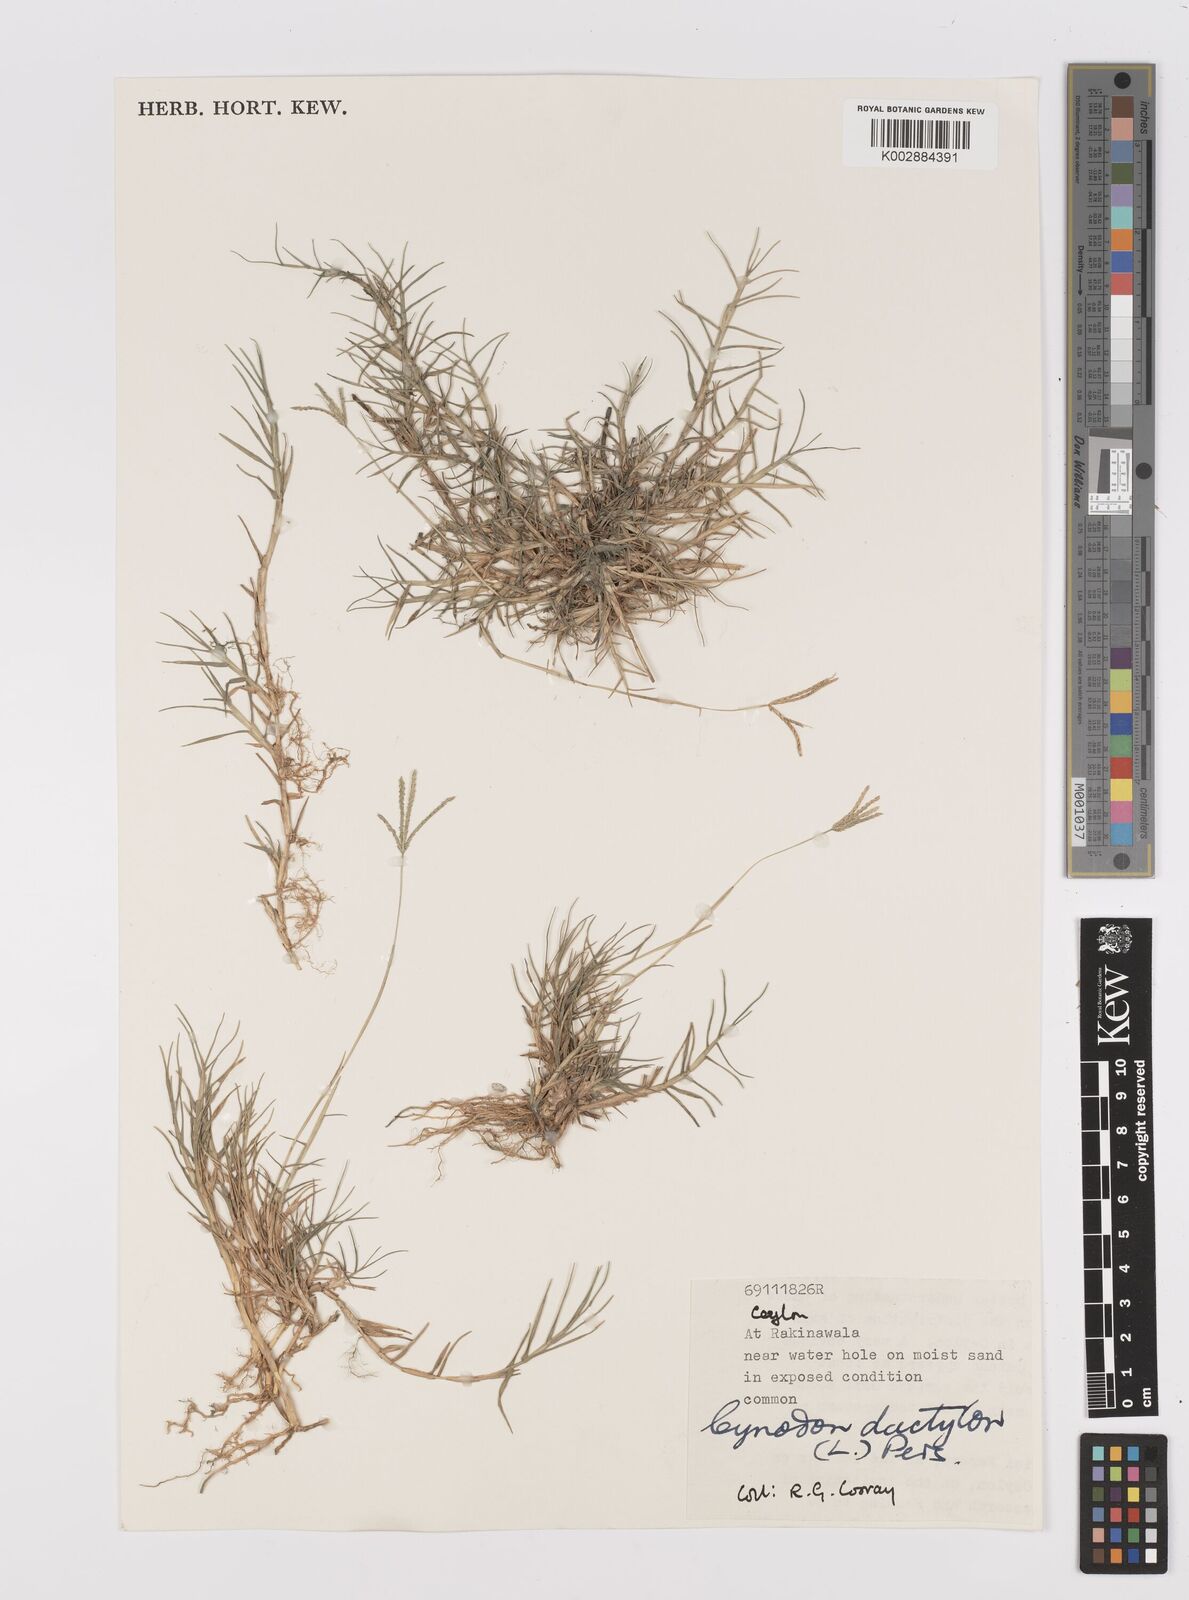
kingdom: Plantae
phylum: Tracheophyta
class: Liliopsida
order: Poales
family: Poaceae
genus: Cynodon
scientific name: Cynodon dactylon
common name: Bermuda grass
